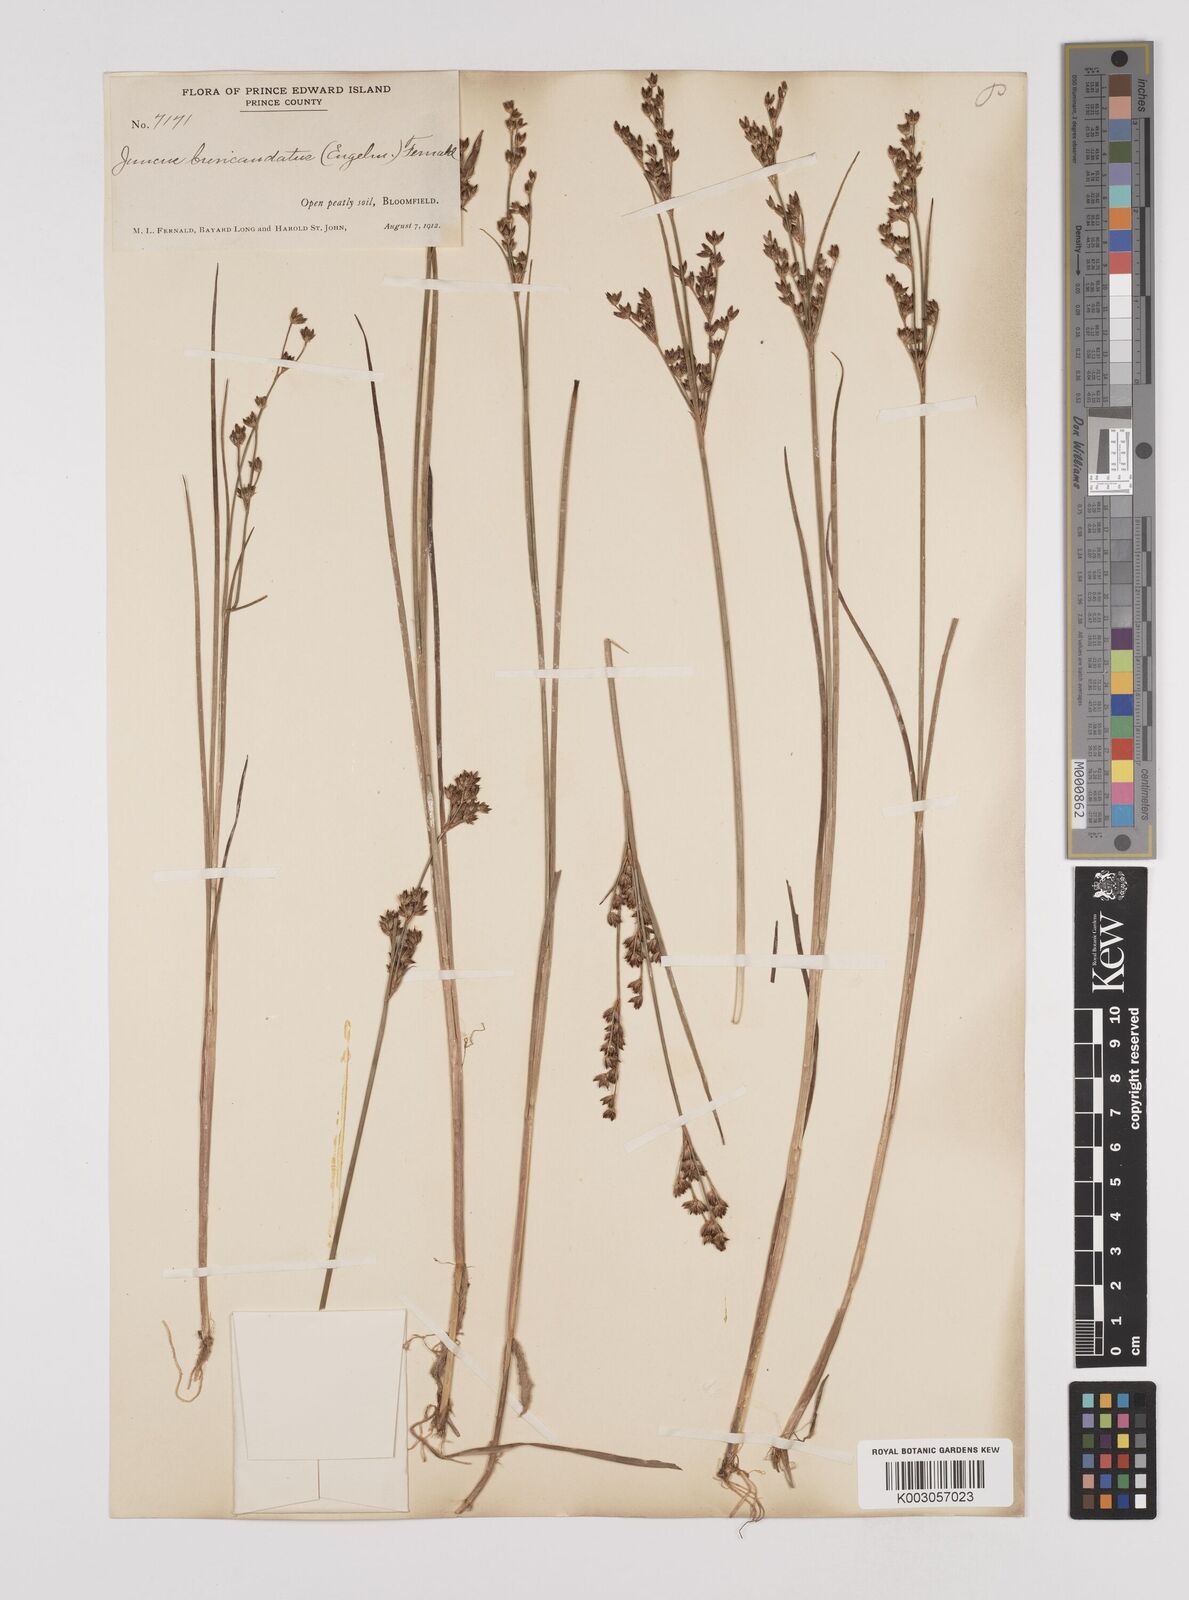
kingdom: Plantae
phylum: Tracheophyta
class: Liliopsida
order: Poales
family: Juncaceae
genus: Juncus
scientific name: Juncus canadensis
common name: Canada rush
